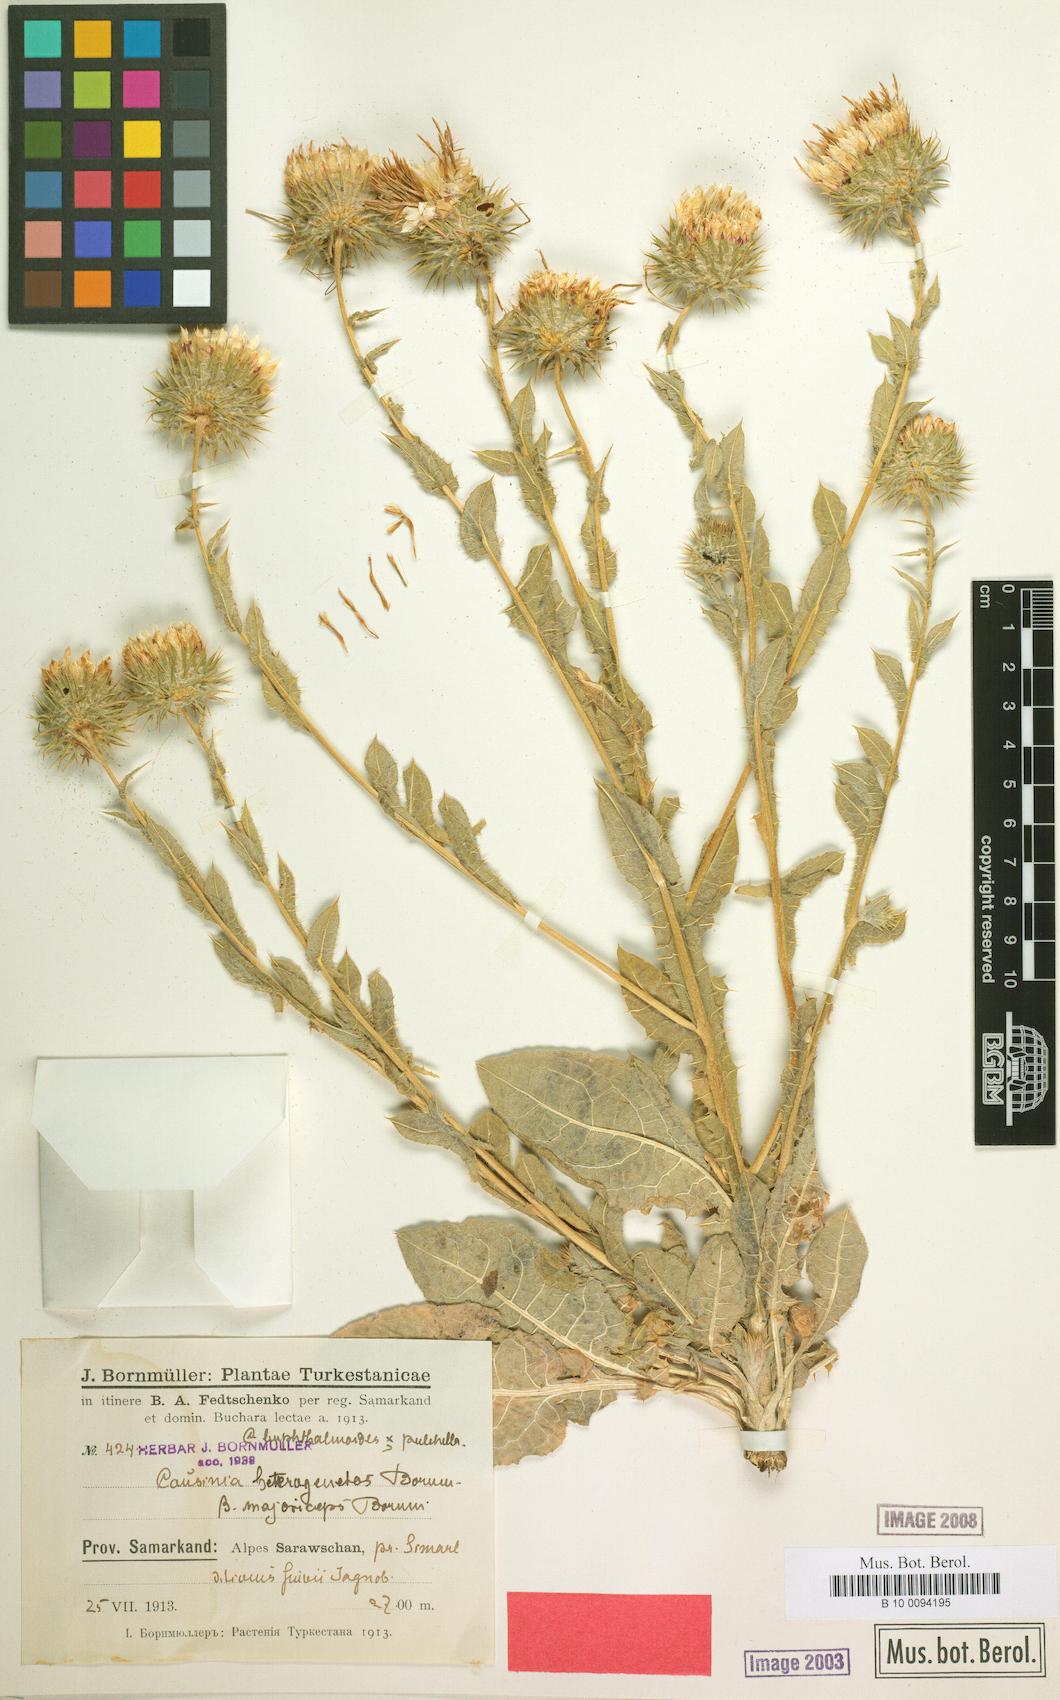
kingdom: Plantae
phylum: Tracheophyta
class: Magnoliopsida
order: Asterales
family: Asteraceae
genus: Cousinia
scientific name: Cousinia heterogenetos
